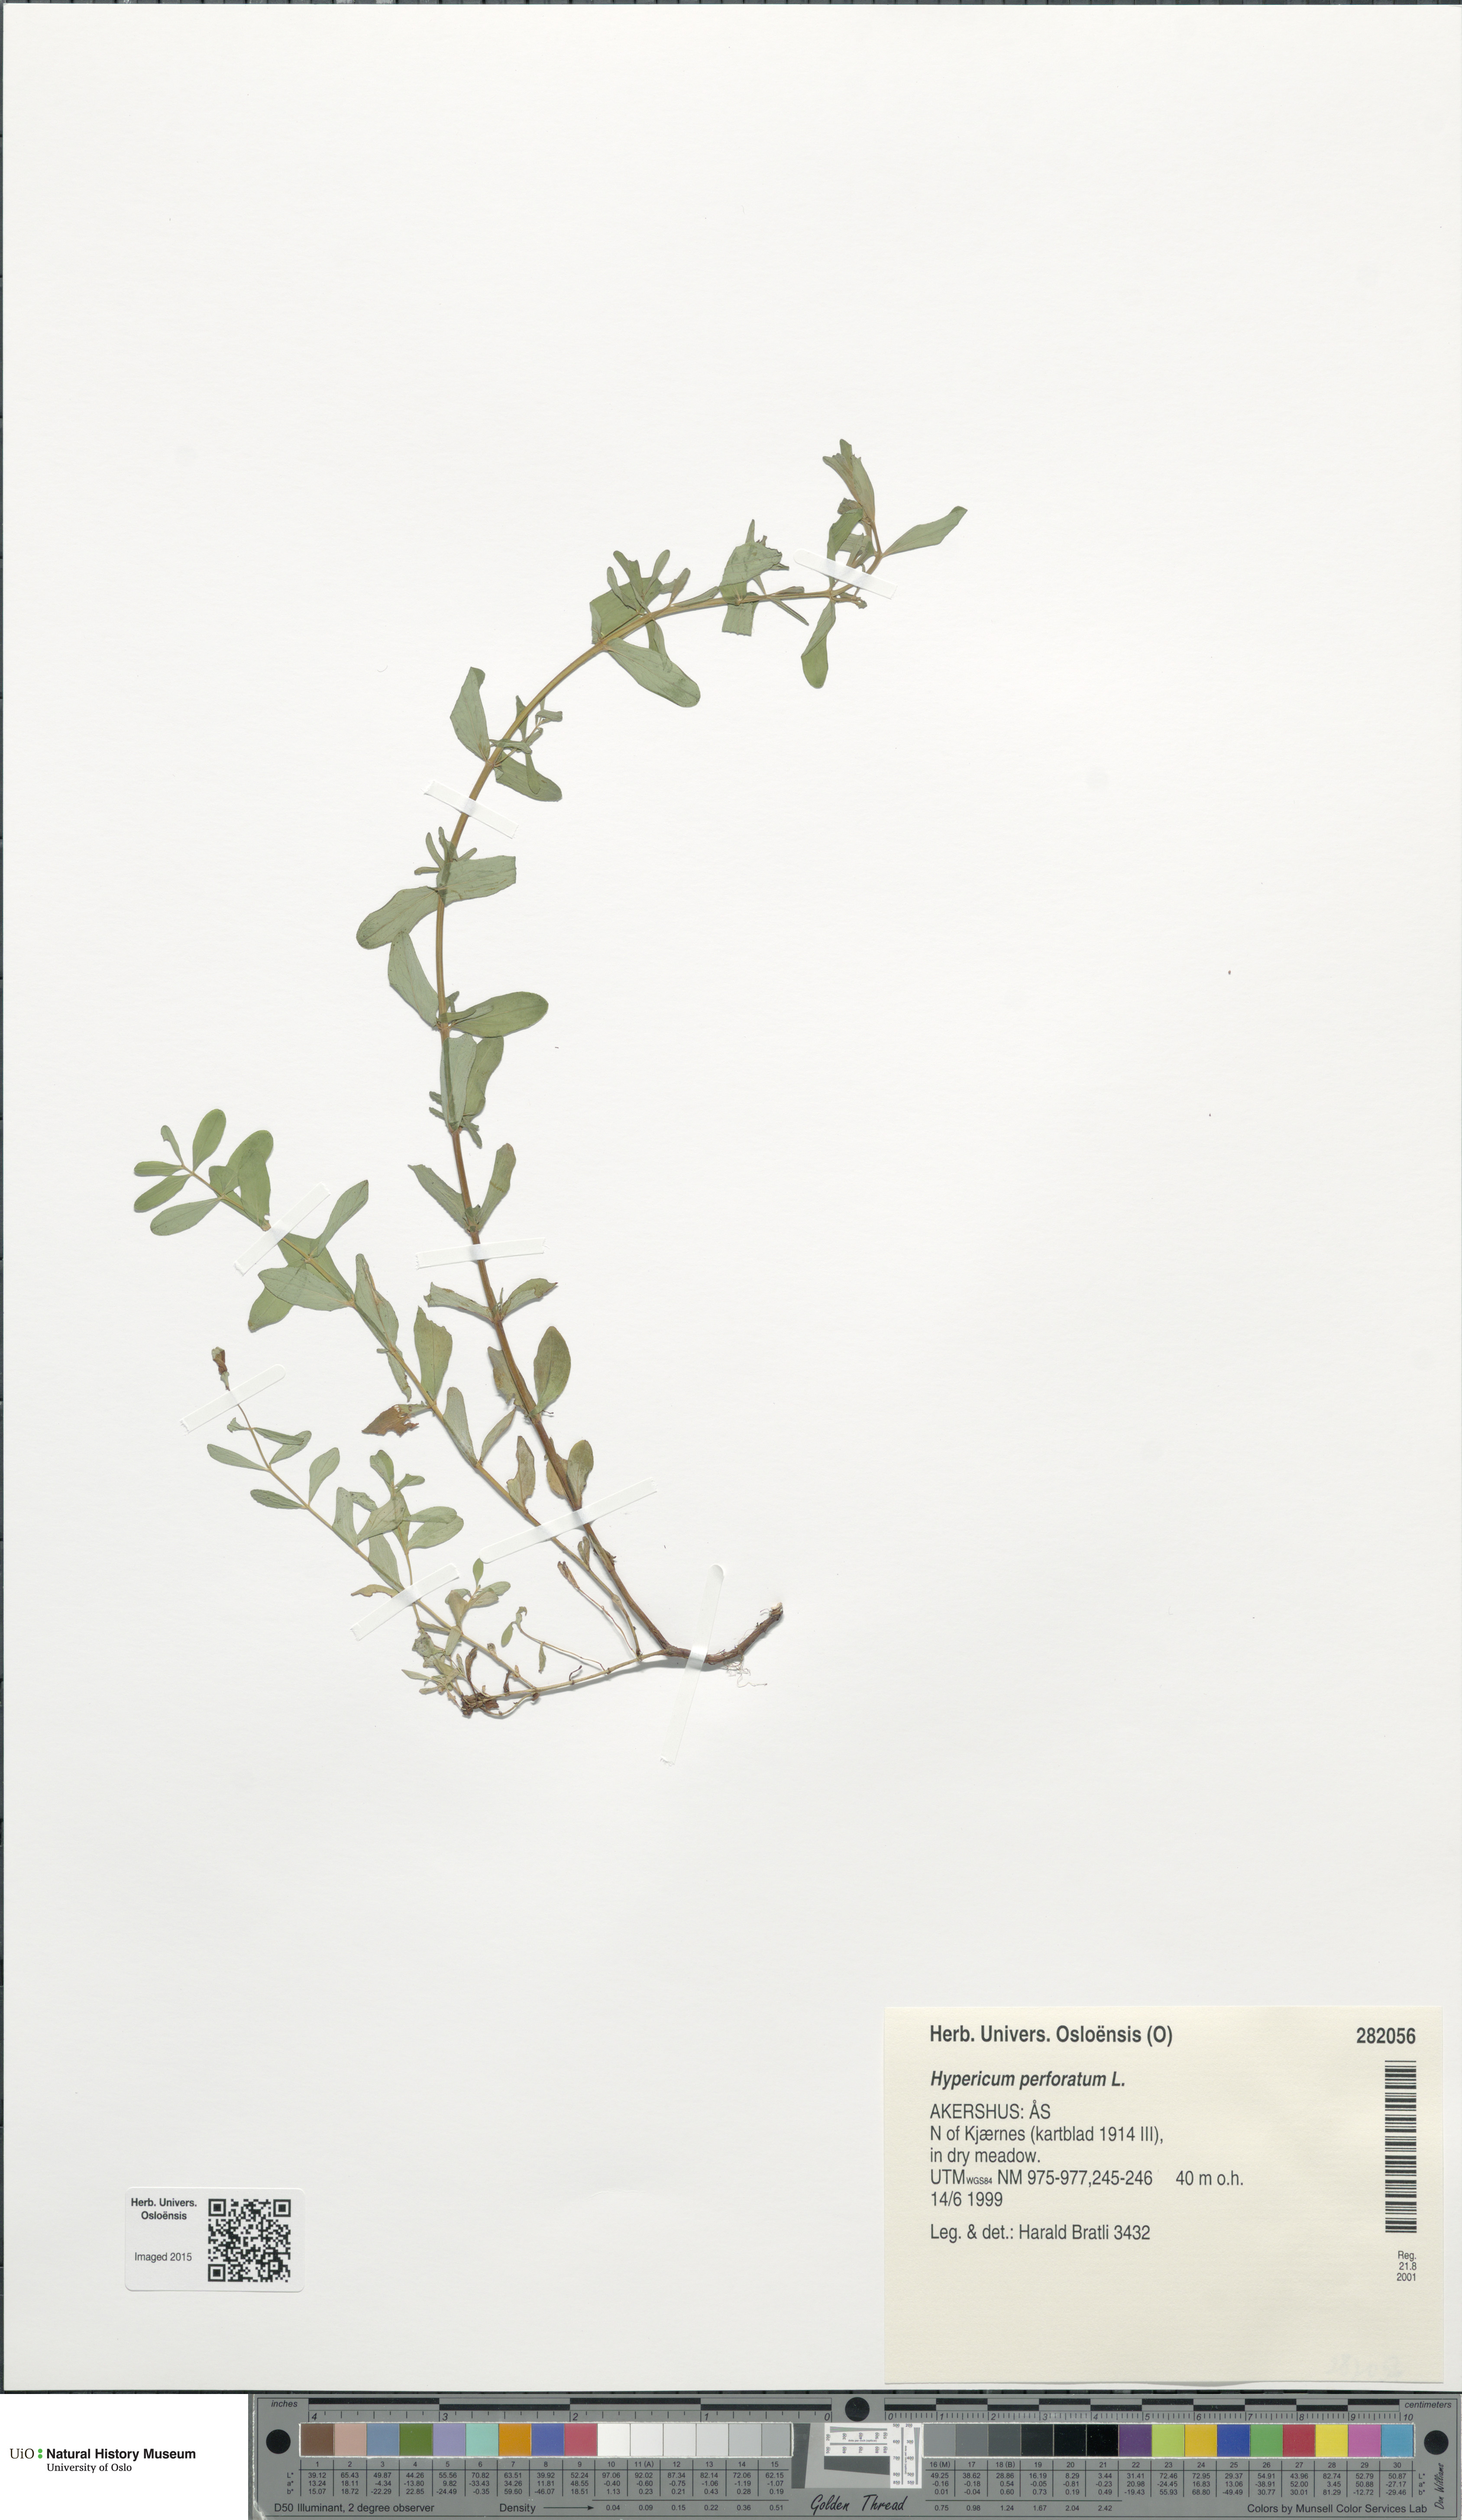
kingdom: Plantae
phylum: Tracheophyta
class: Magnoliopsida
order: Malpighiales
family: Hypericaceae
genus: Hypericum
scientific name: Hypericum perforatum
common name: Common st. johnswort
